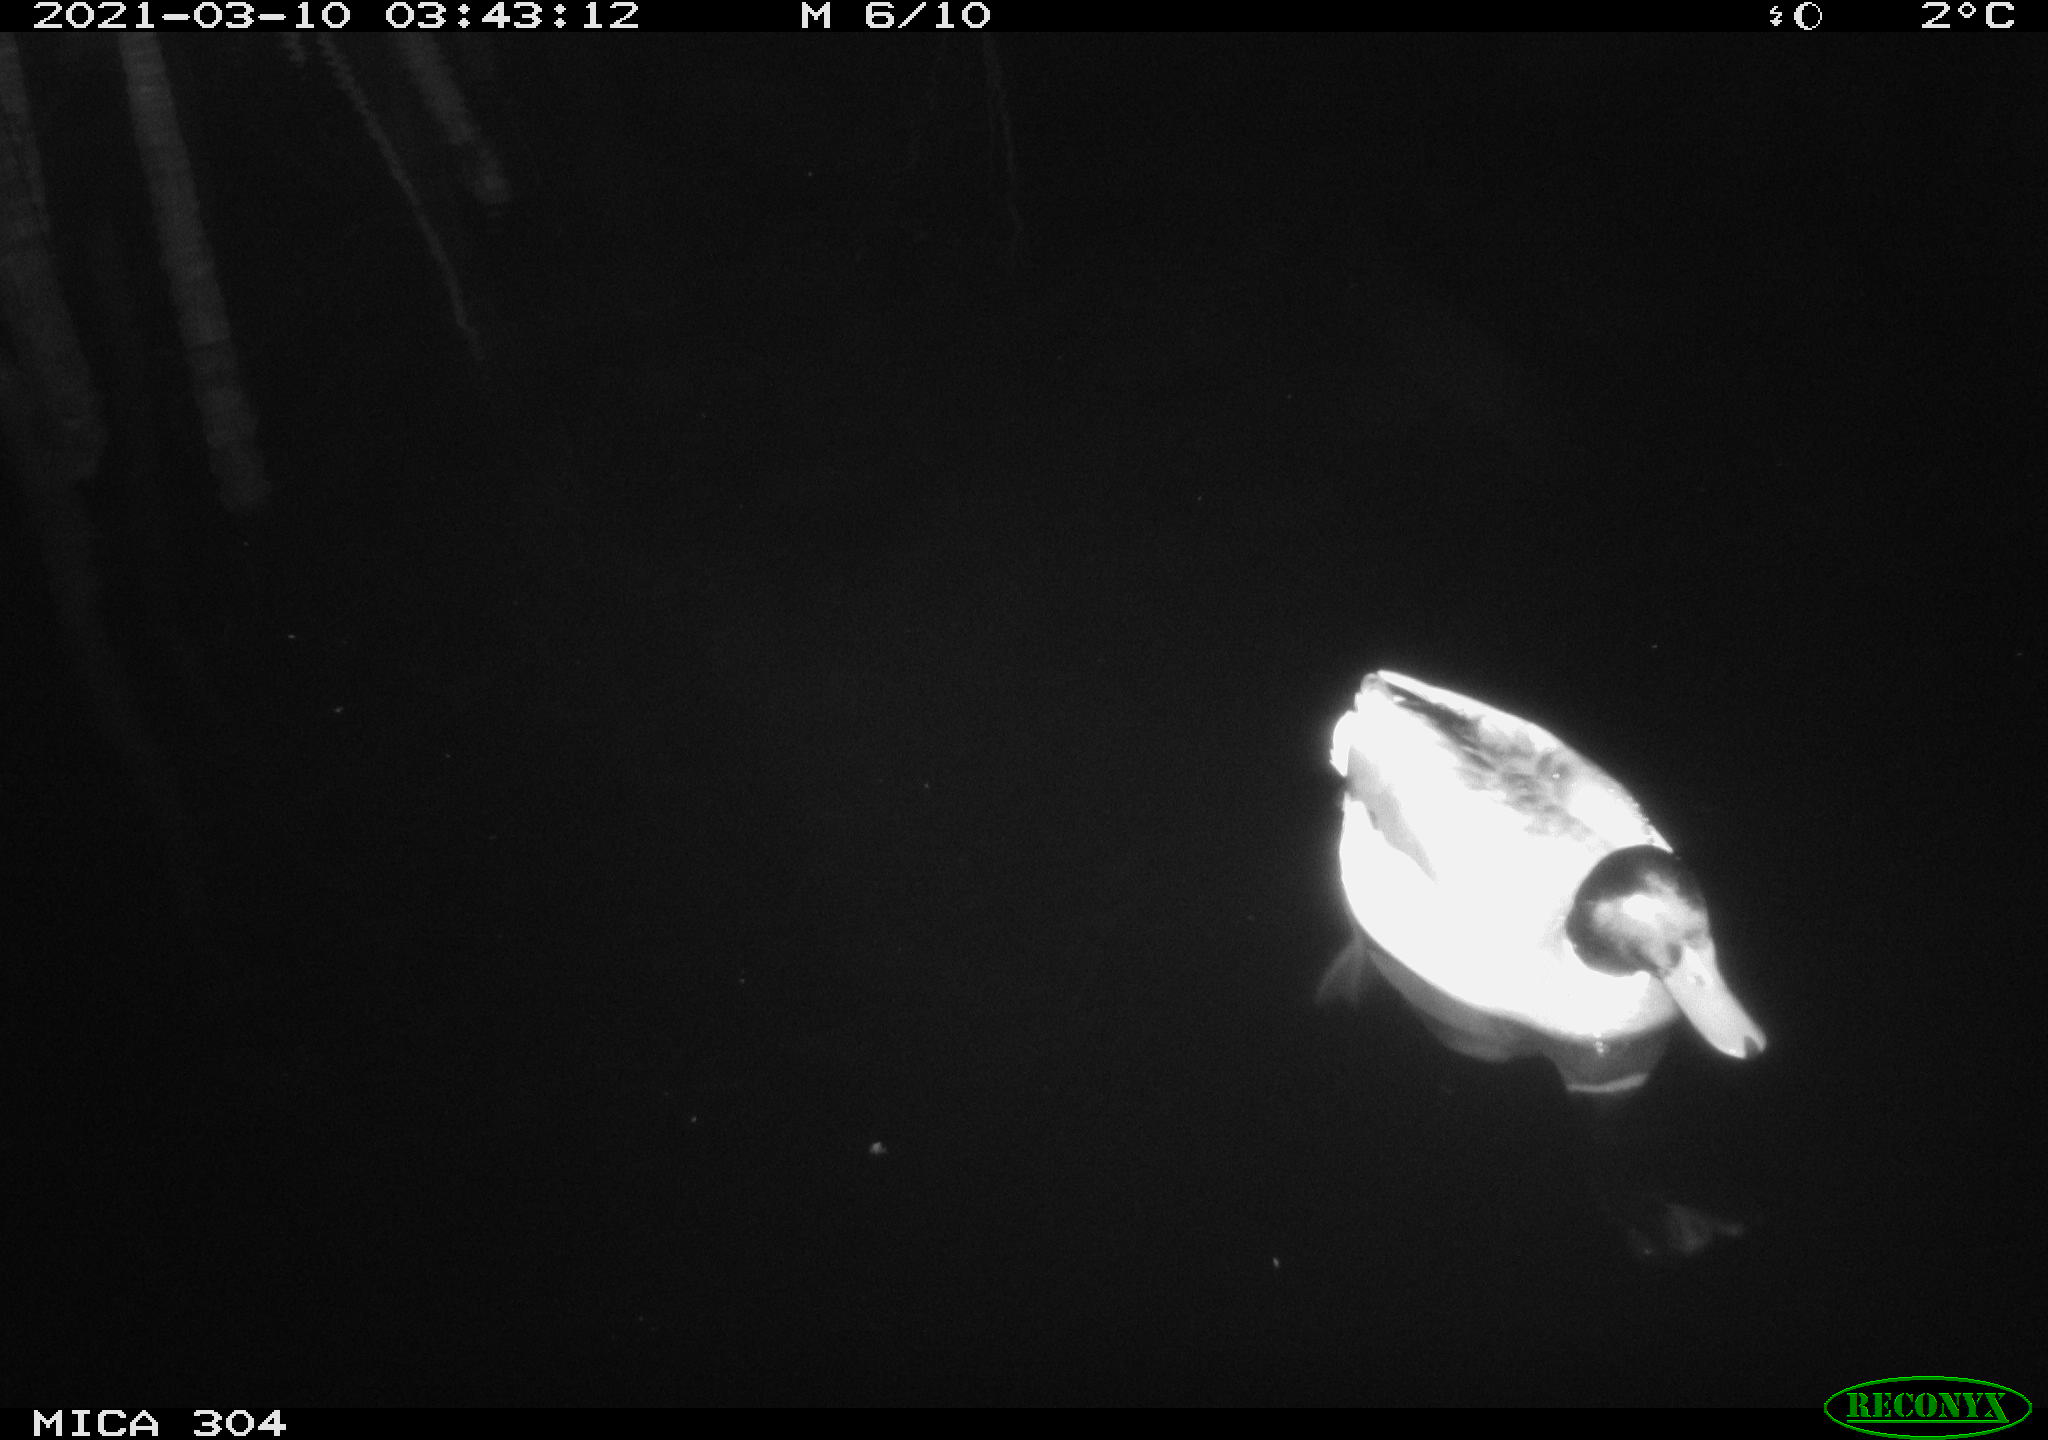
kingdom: Animalia
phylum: Chordata
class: Aves
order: Anseriformes
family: Anatidae
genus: Anas
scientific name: Anas platyrhynchos
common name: Mallard
